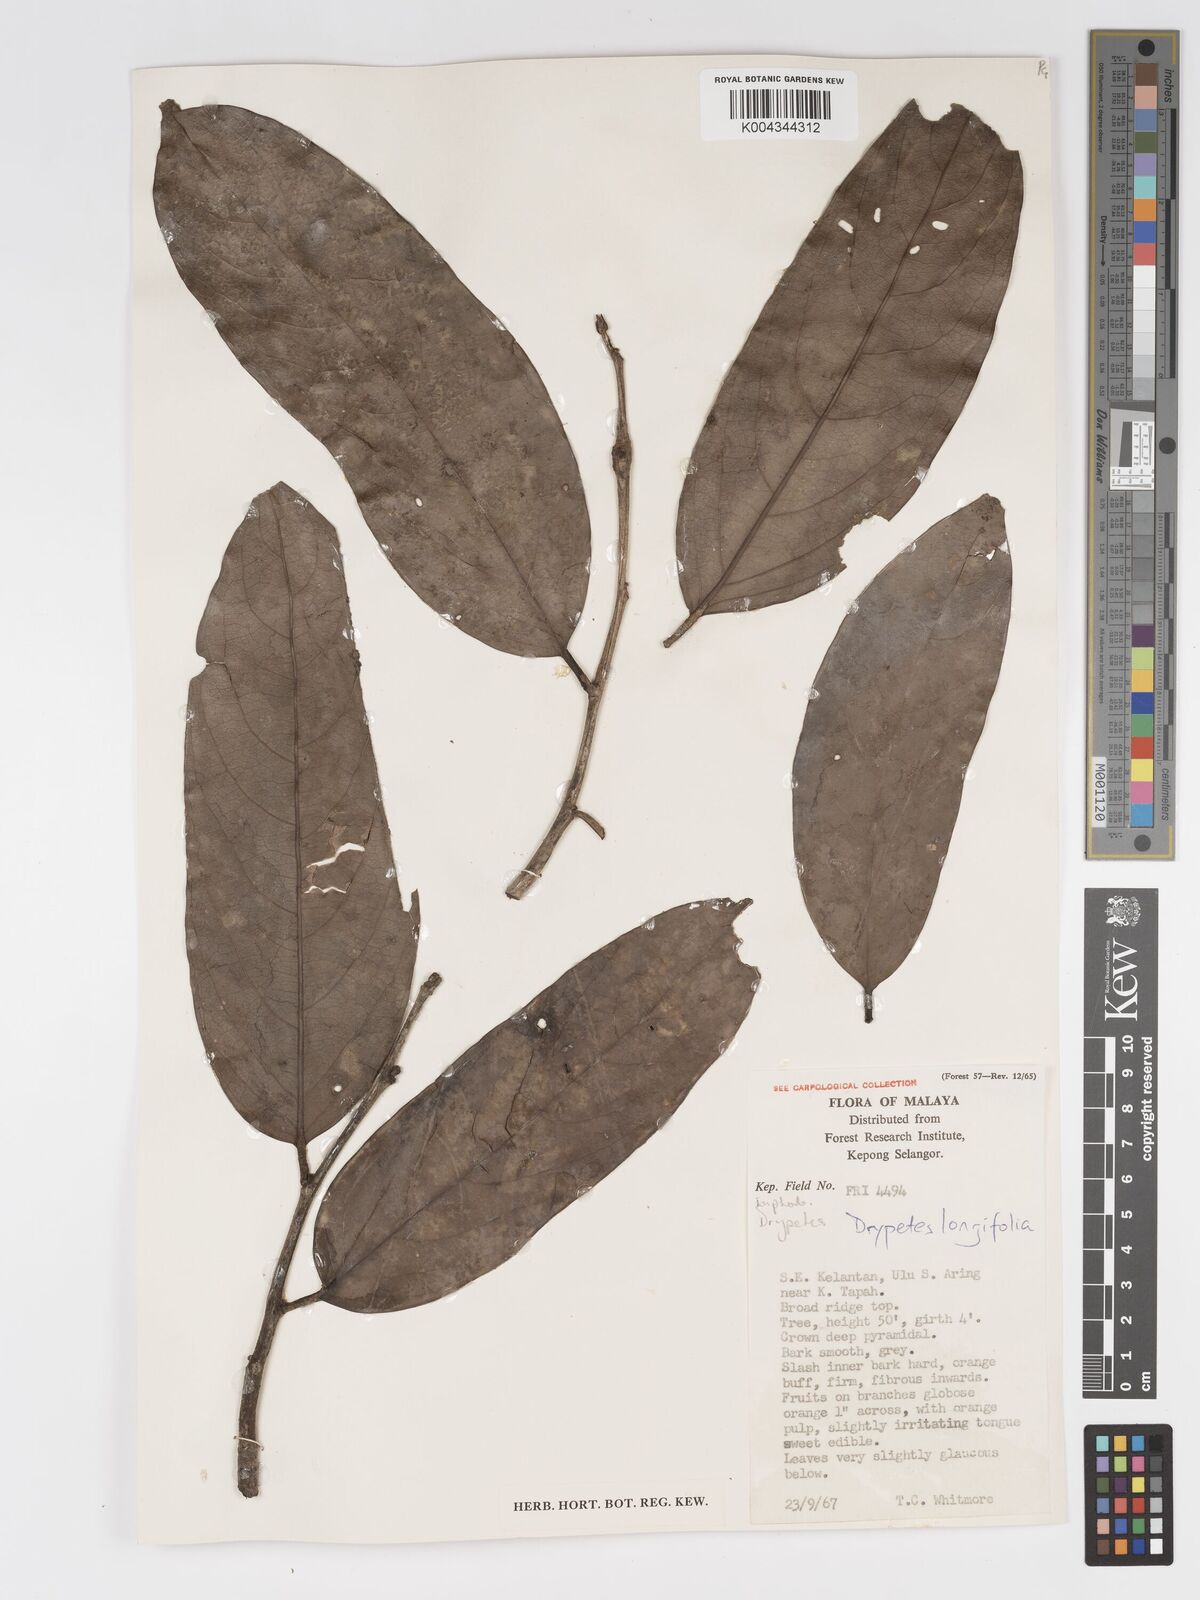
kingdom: Plantae
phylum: Tracheophyta
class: Magnoliopsida
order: Malpighiales
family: Putranjivaceae
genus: Drypetes
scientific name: Drypetes longifolia
